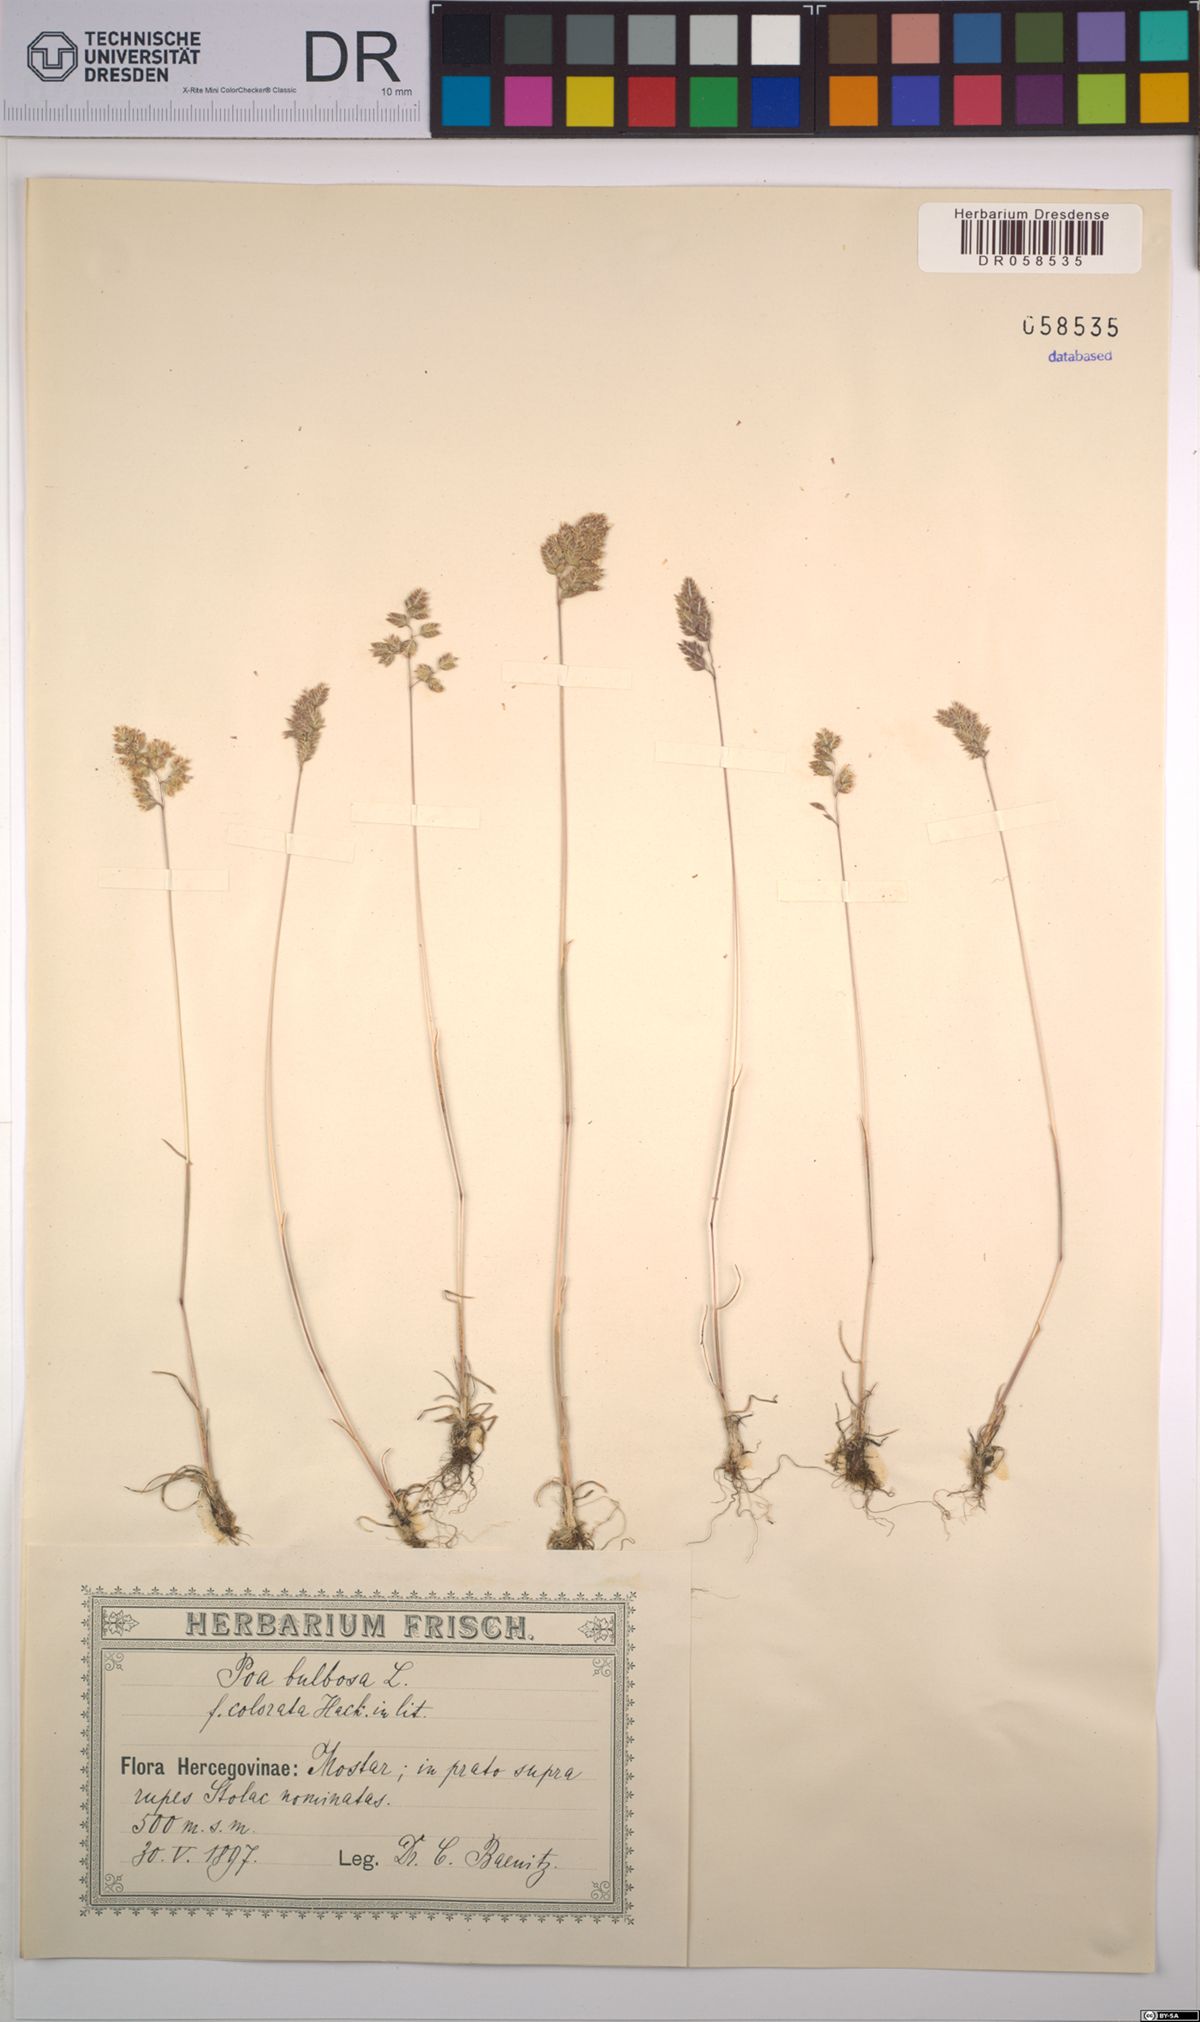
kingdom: Plantae
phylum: Tracheophyta
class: Liliopsida
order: Poales
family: Poaceae
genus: Poa
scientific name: Poa bulbosa
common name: Bulbous bluegrass
